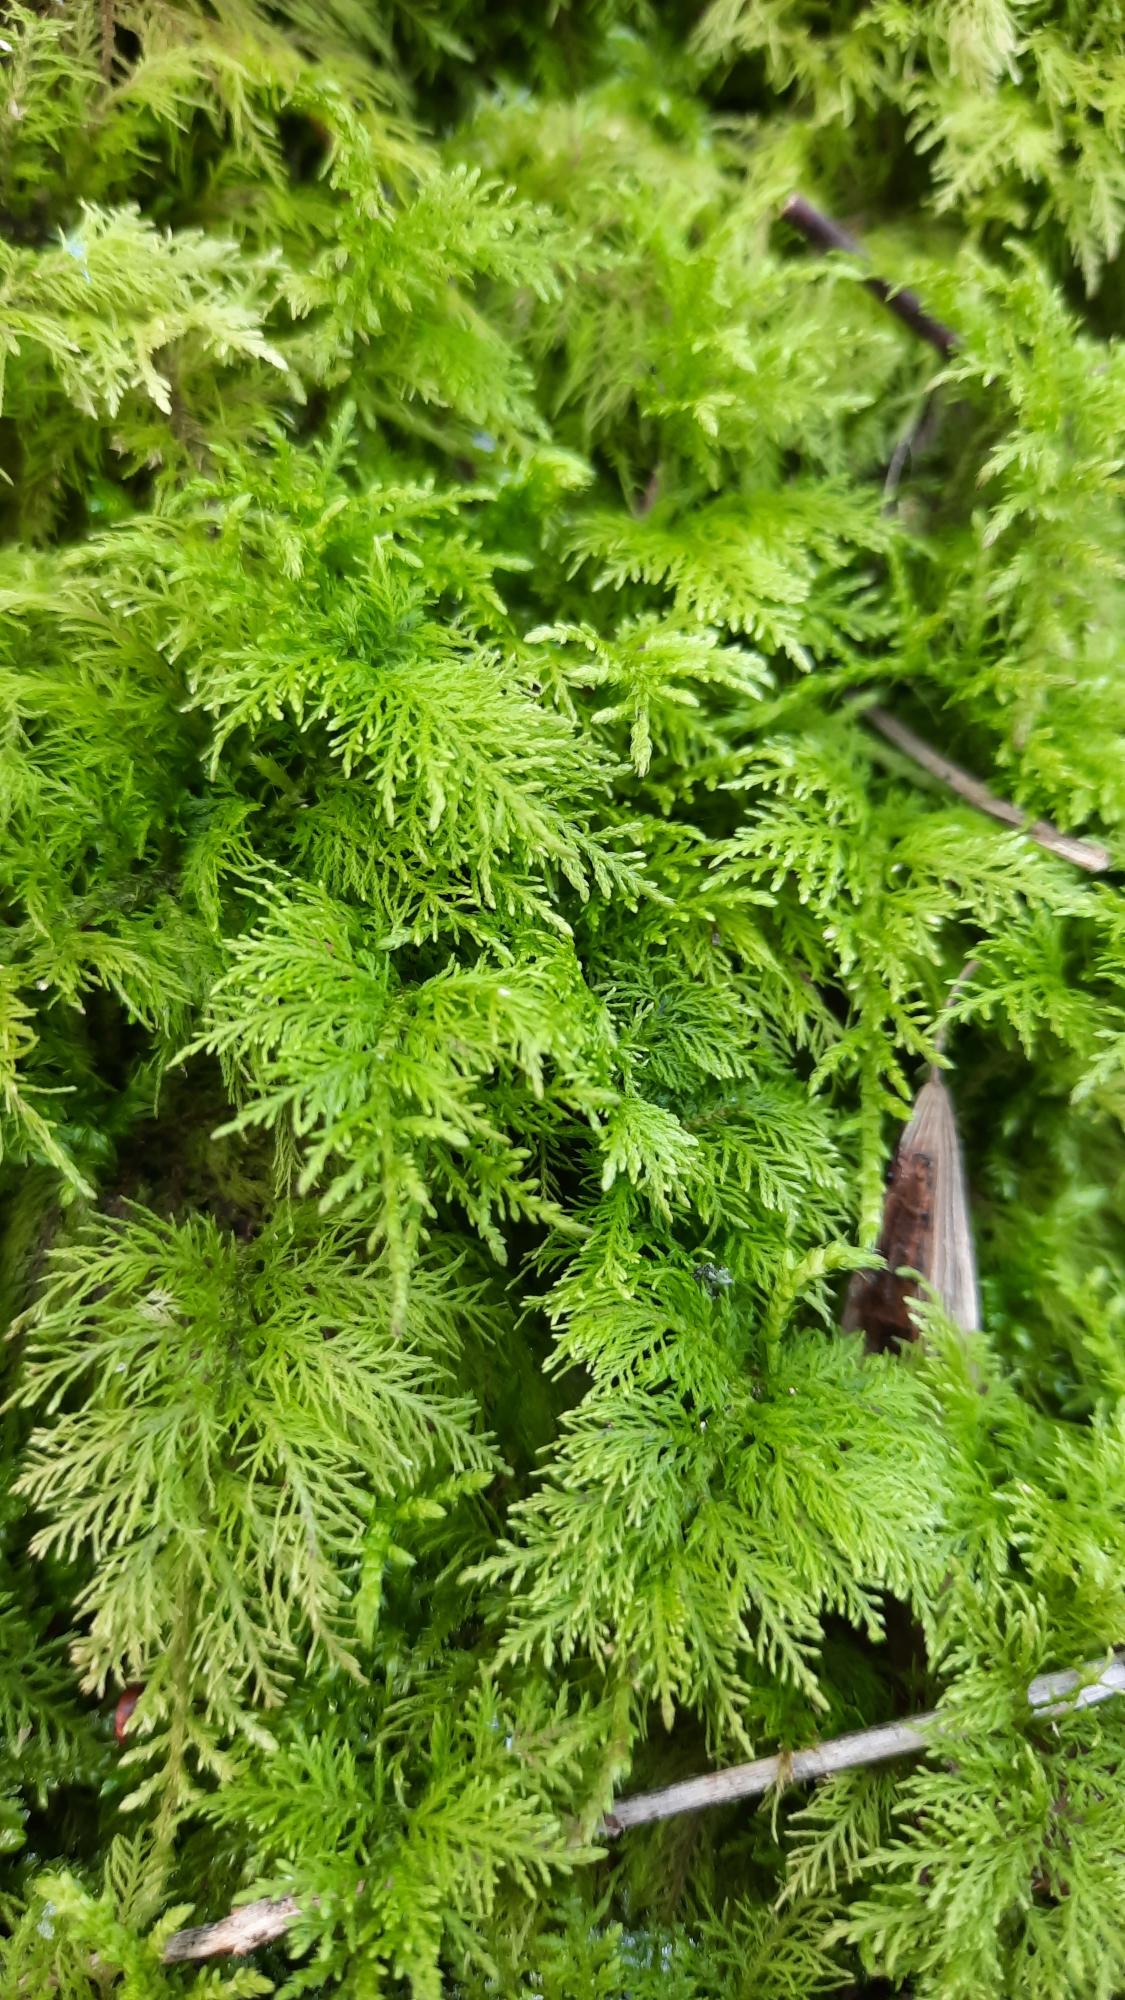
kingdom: Plantae
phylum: Bryophyta
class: Bryopsida
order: Hypnales
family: Thuidiaceae
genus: Thuidium
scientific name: Thuidium tamariscinum
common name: Pryd-bregnemos
